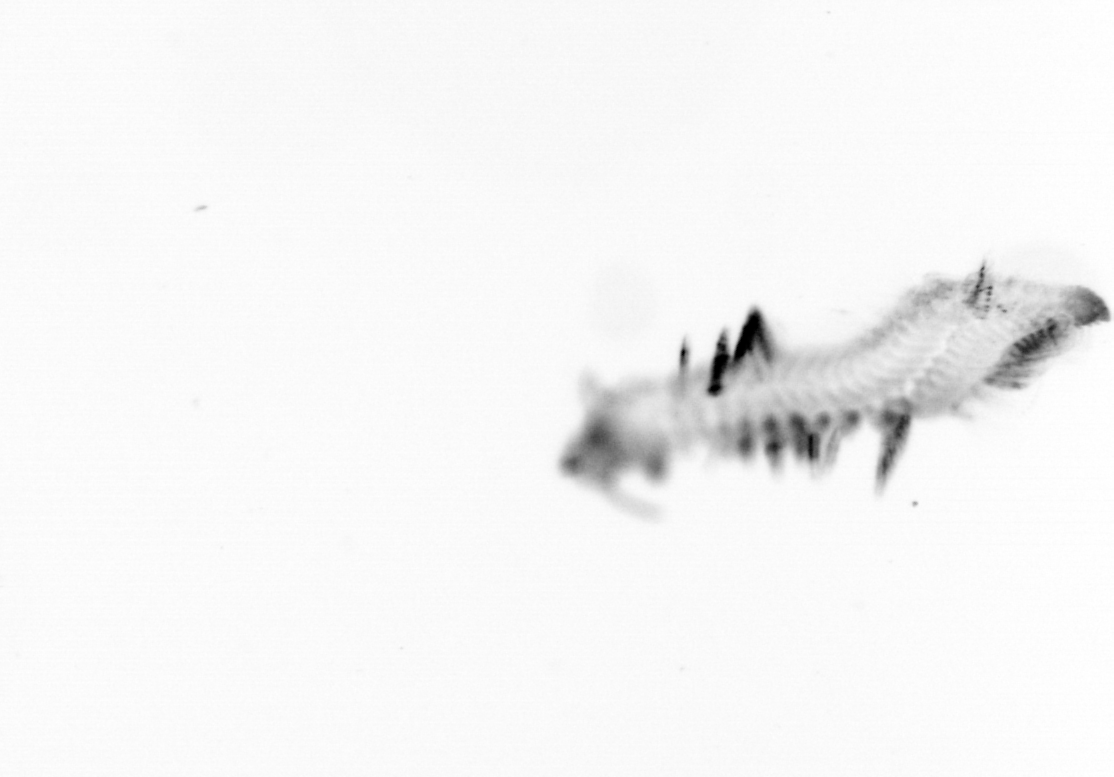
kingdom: Animalia
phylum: Annelida
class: Polychaeta
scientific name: Polychaeta
